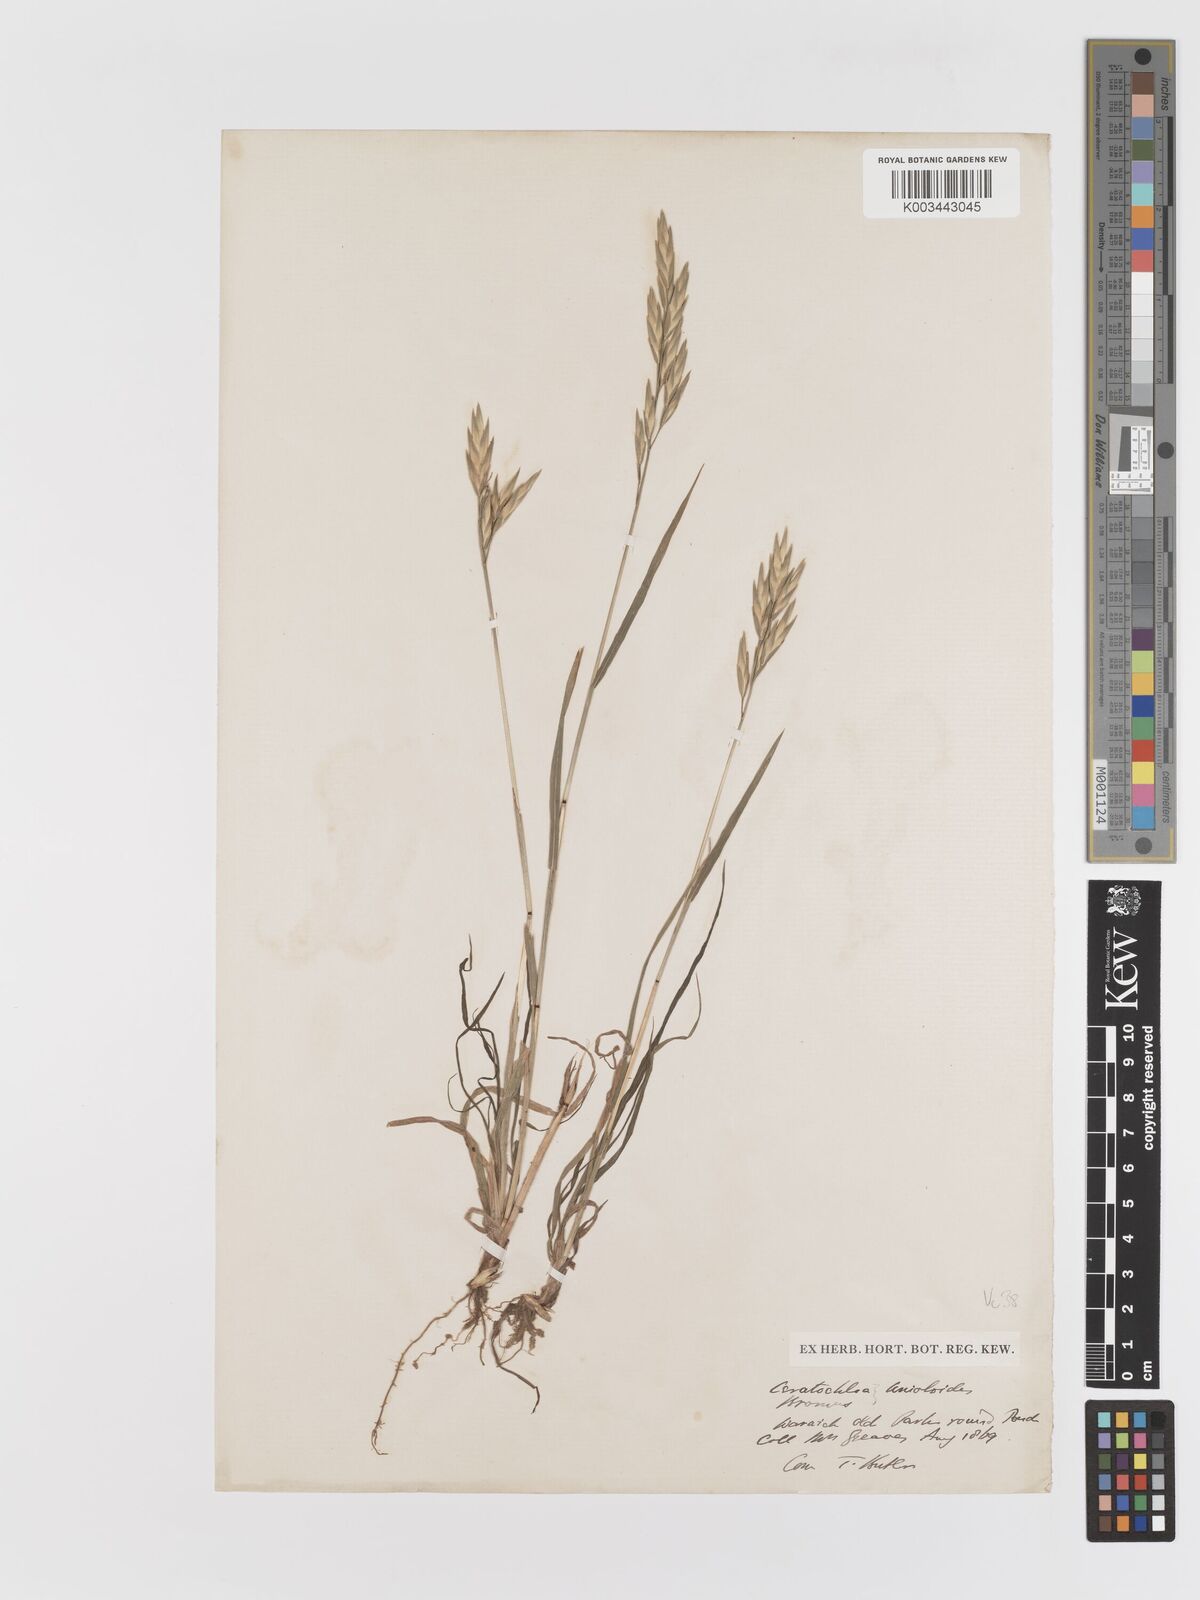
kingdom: Plantae
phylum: Tracheophyta
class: Liliopsida
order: Poales
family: Poaceae
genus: Bromus
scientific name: Bromus catharticus
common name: Rescuegrass
